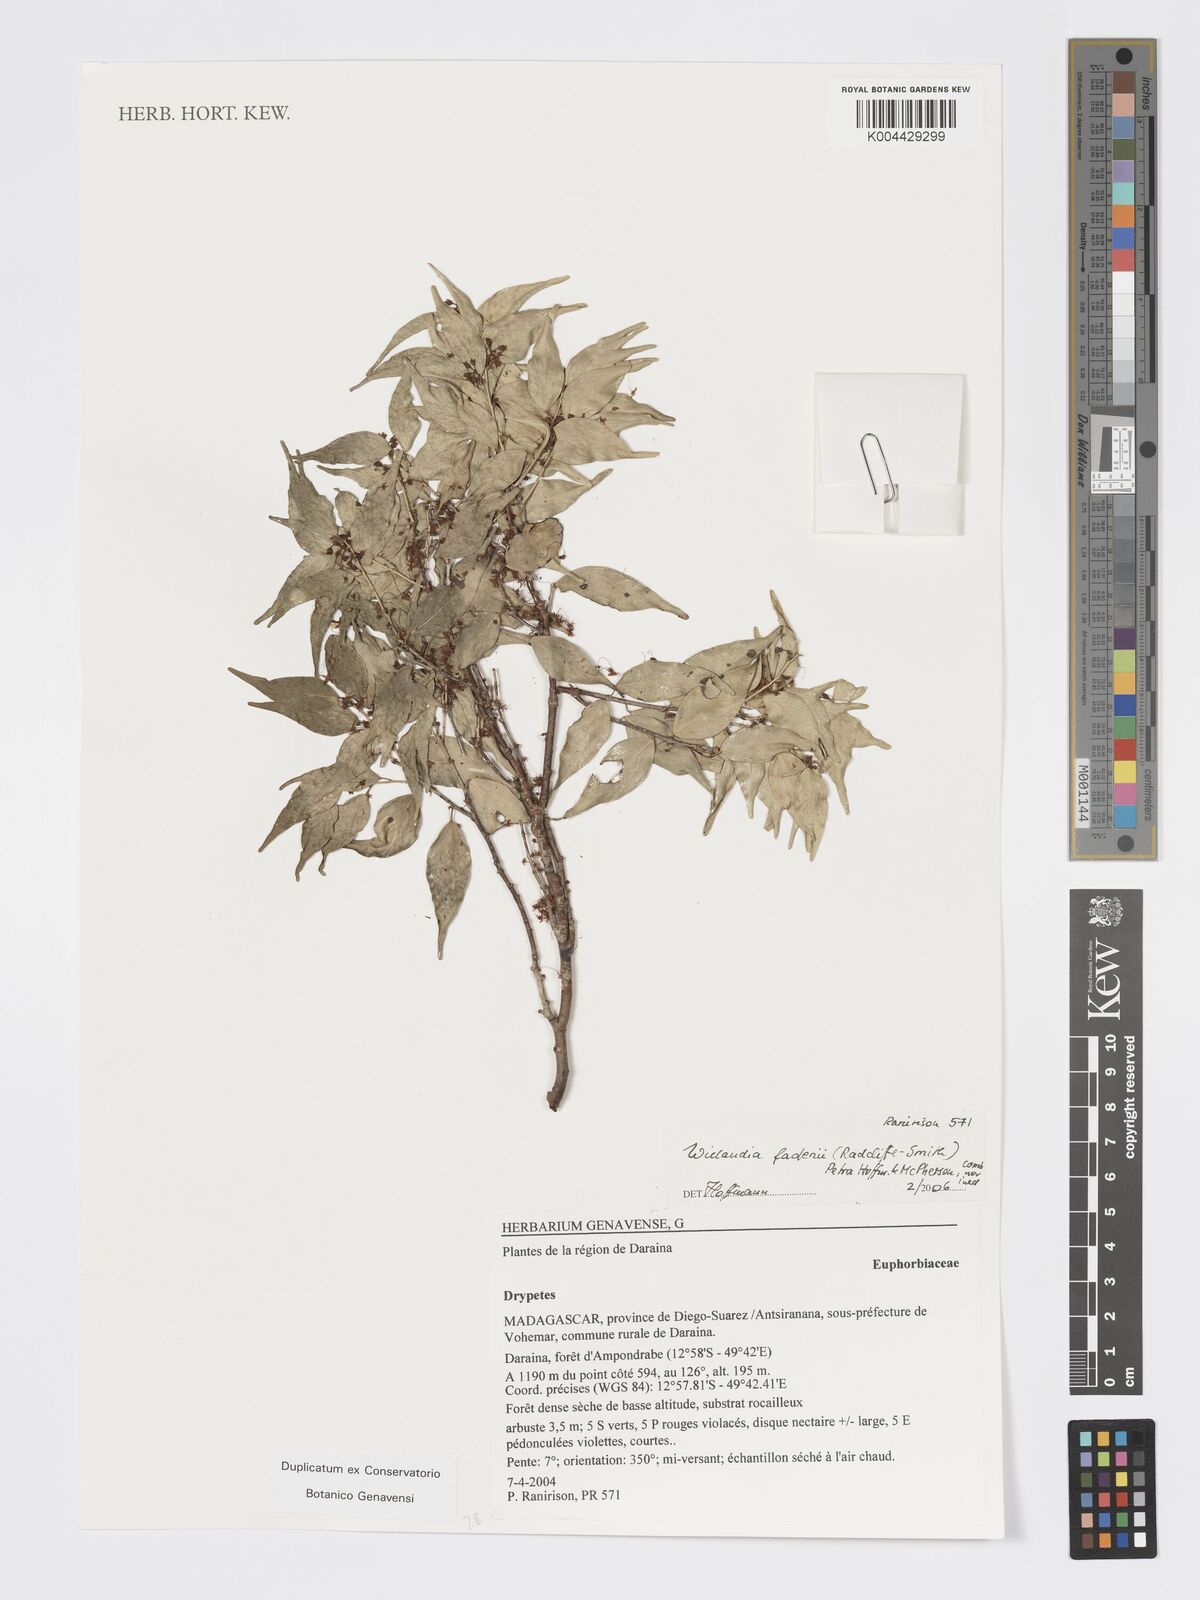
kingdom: Plantae
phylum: Tracheophyta
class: Magnoliopsida
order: Malpighiales
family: Phyllanthaceae
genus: Wielandia
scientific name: Wielandia fadenii
